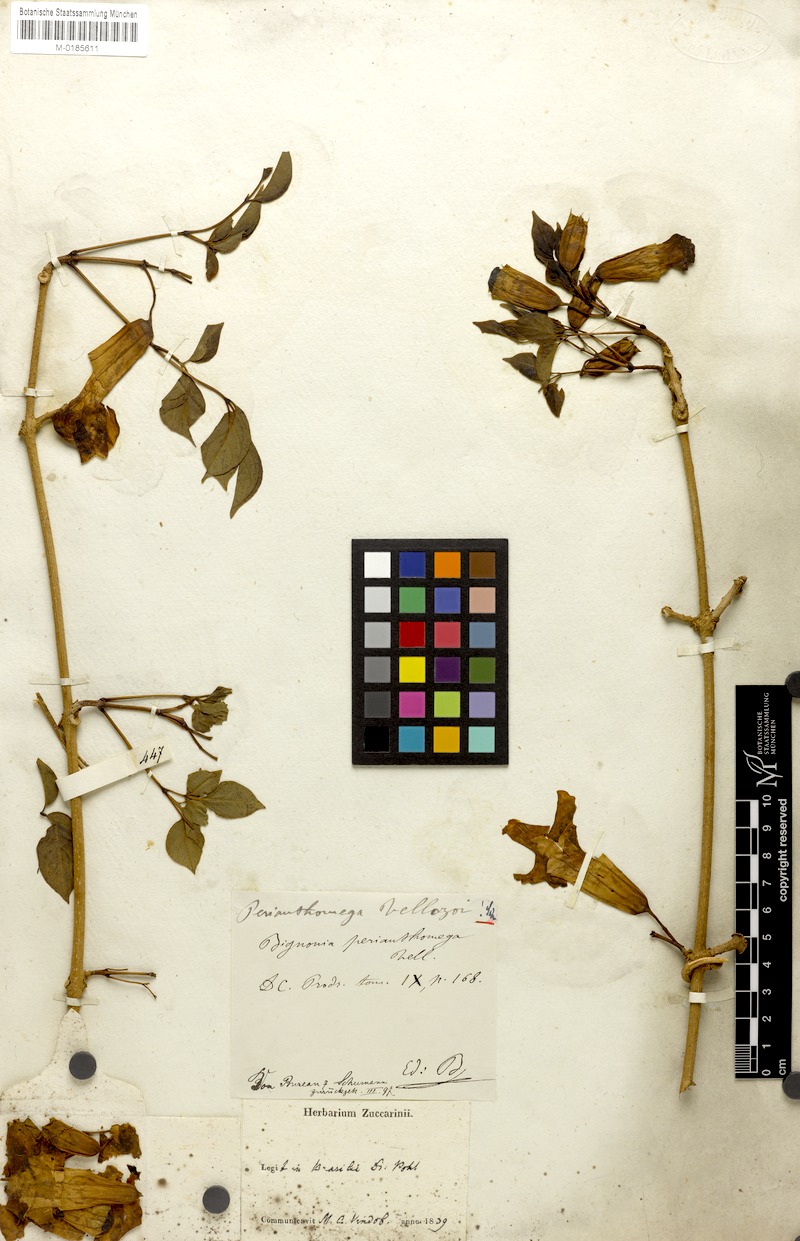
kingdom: Plantae
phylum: Tracheophyta
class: Magnoliopsida
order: Lamiales
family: Bignoniaceae
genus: Perianthomega
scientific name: Perianthomega vellozoi
